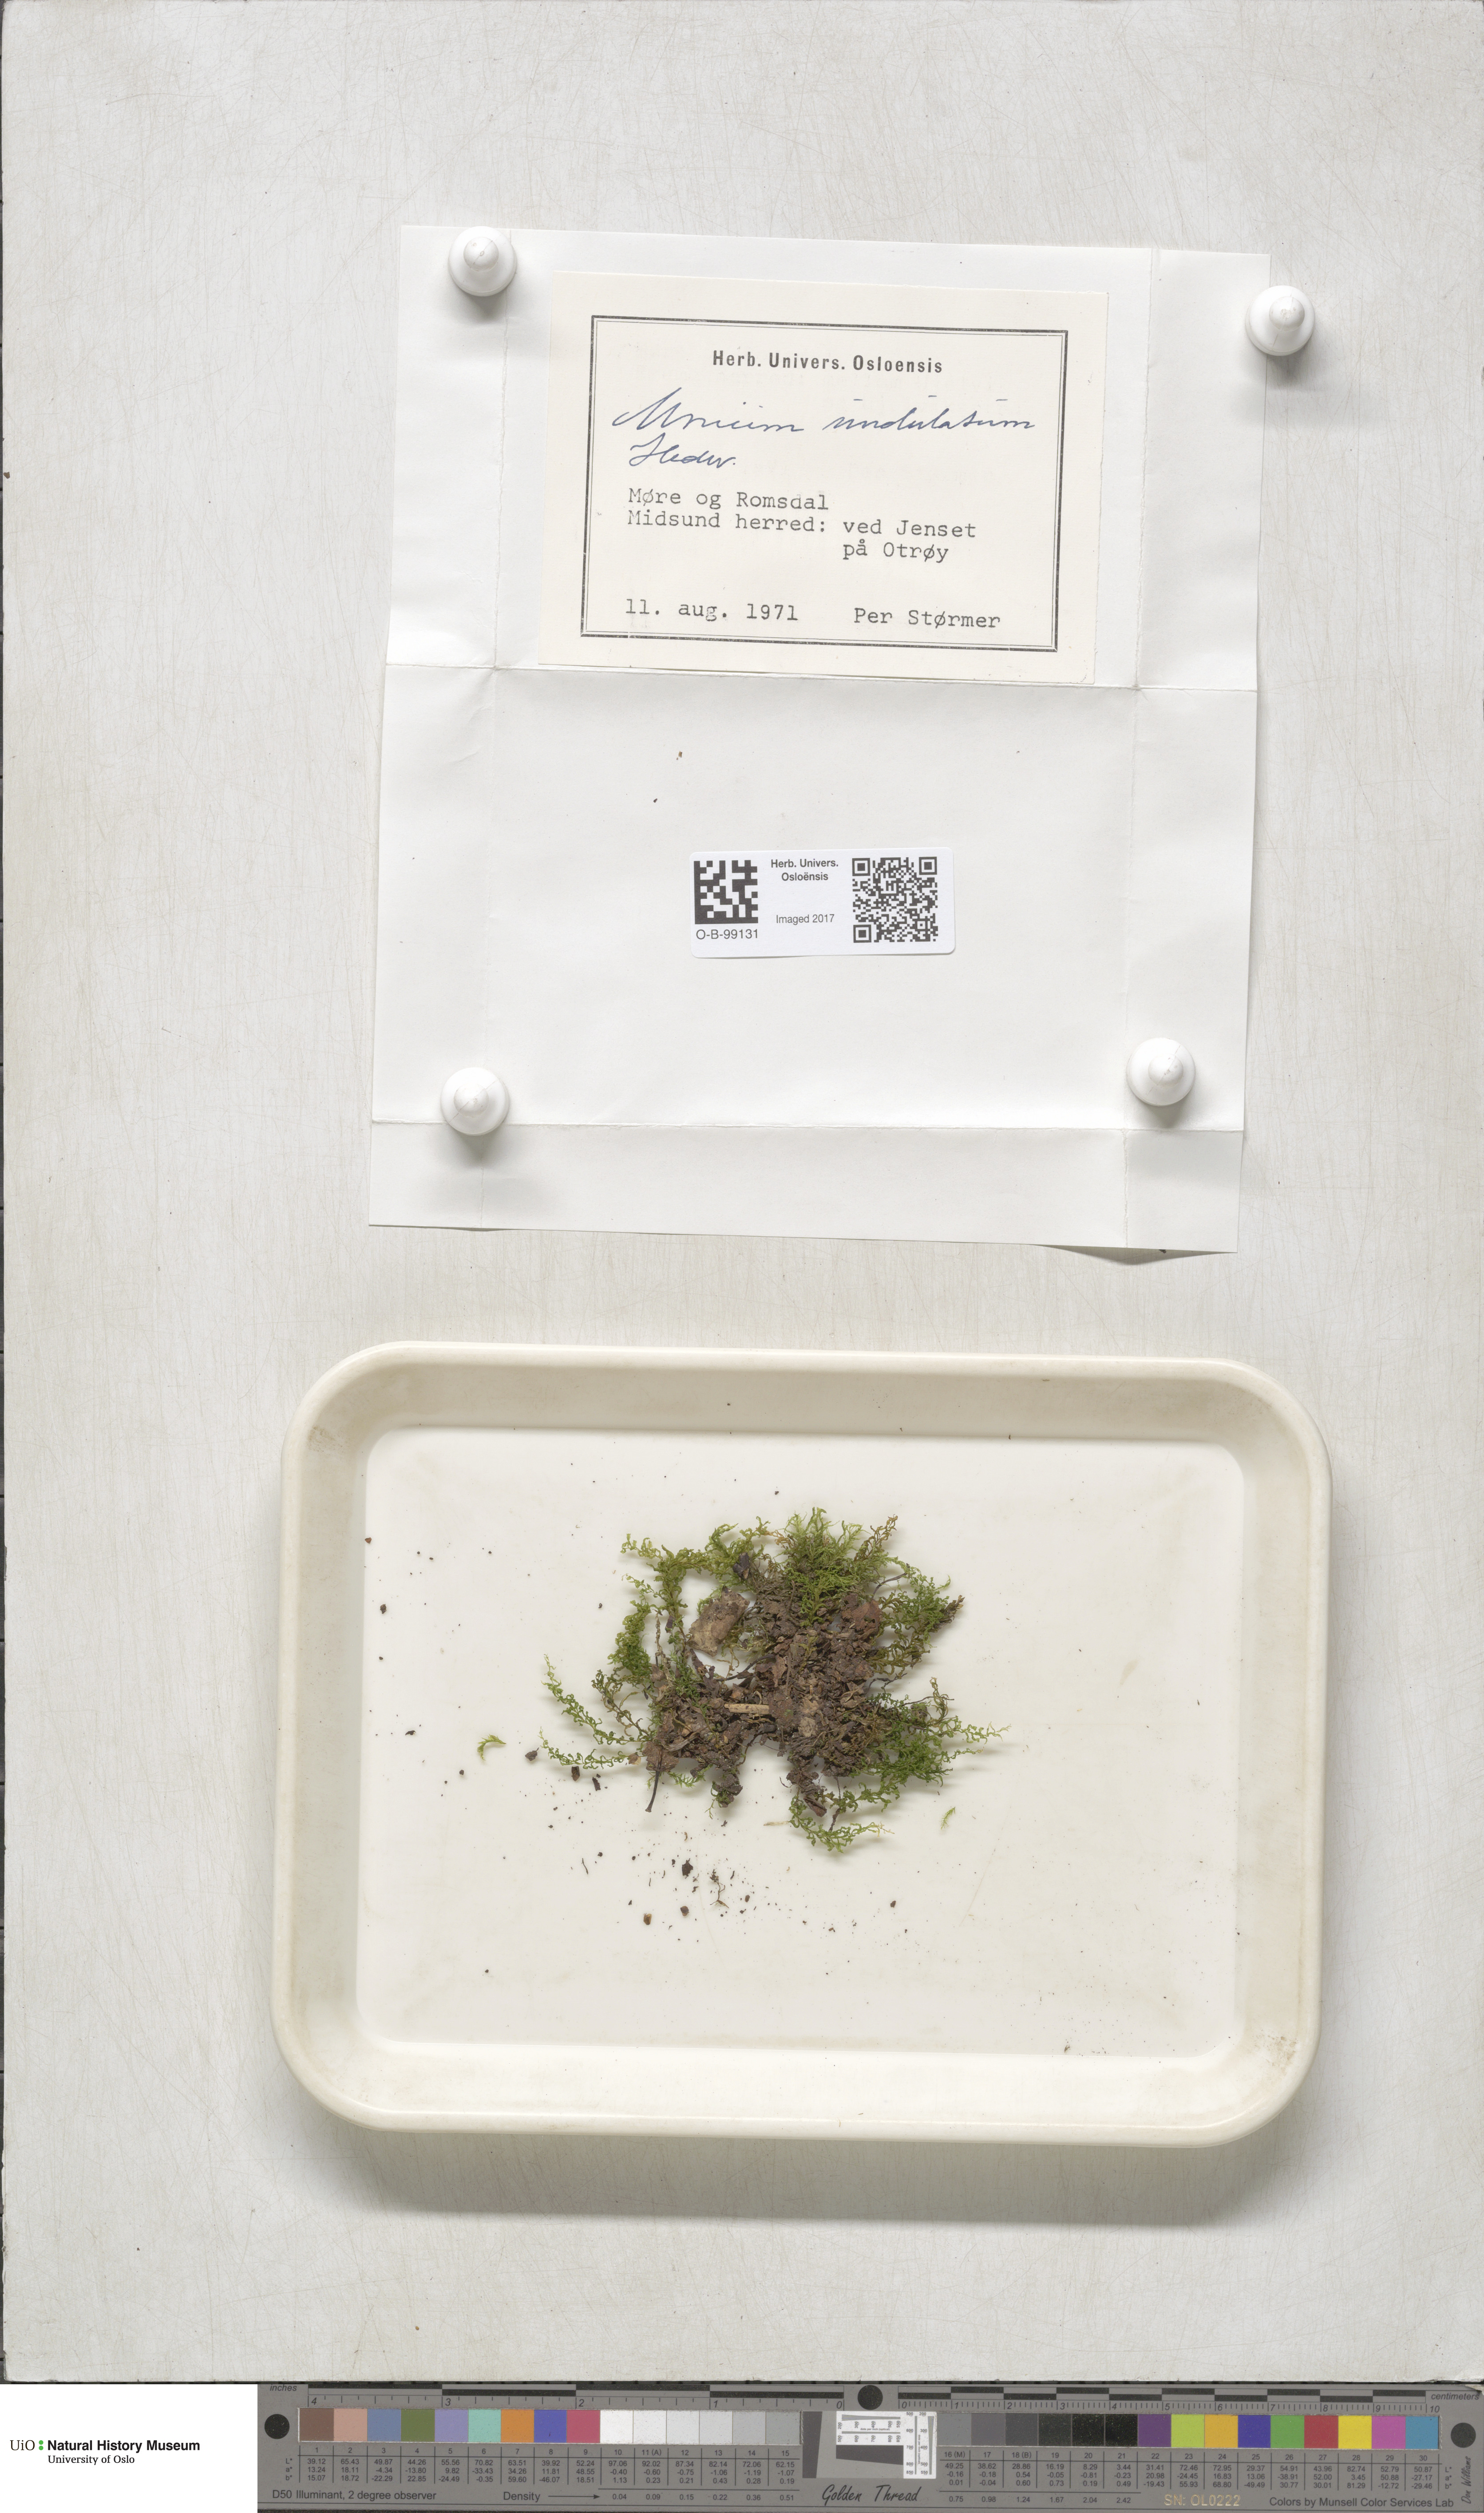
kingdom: Plantae
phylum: Bryophyta
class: Bryopsida
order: Bryales
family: Mniaceae
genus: Plagiomnium
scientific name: Plagiomnium undulatum
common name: Hart's-tongue thyme-moss
